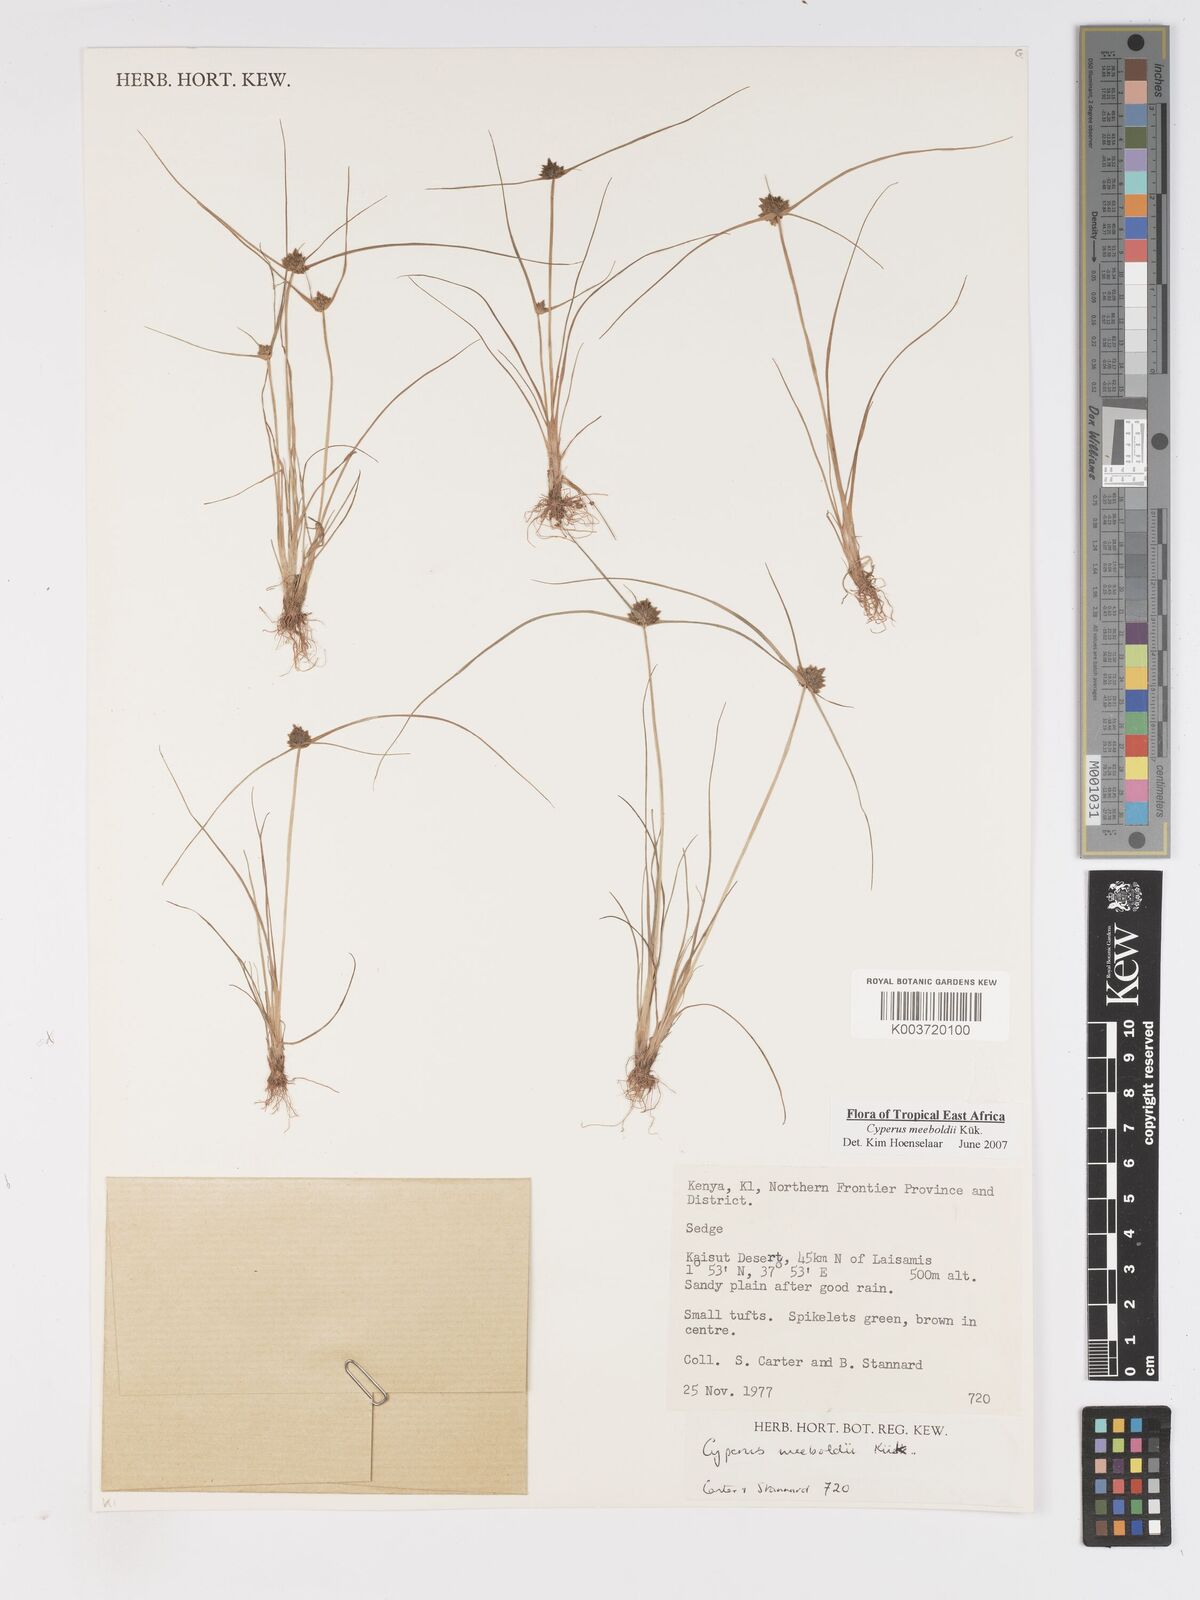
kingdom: Plantae
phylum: Tracheophyta
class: Liliopsida
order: Poales
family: Cyperaceae
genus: Cyperus
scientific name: Cyperus meeboldii
